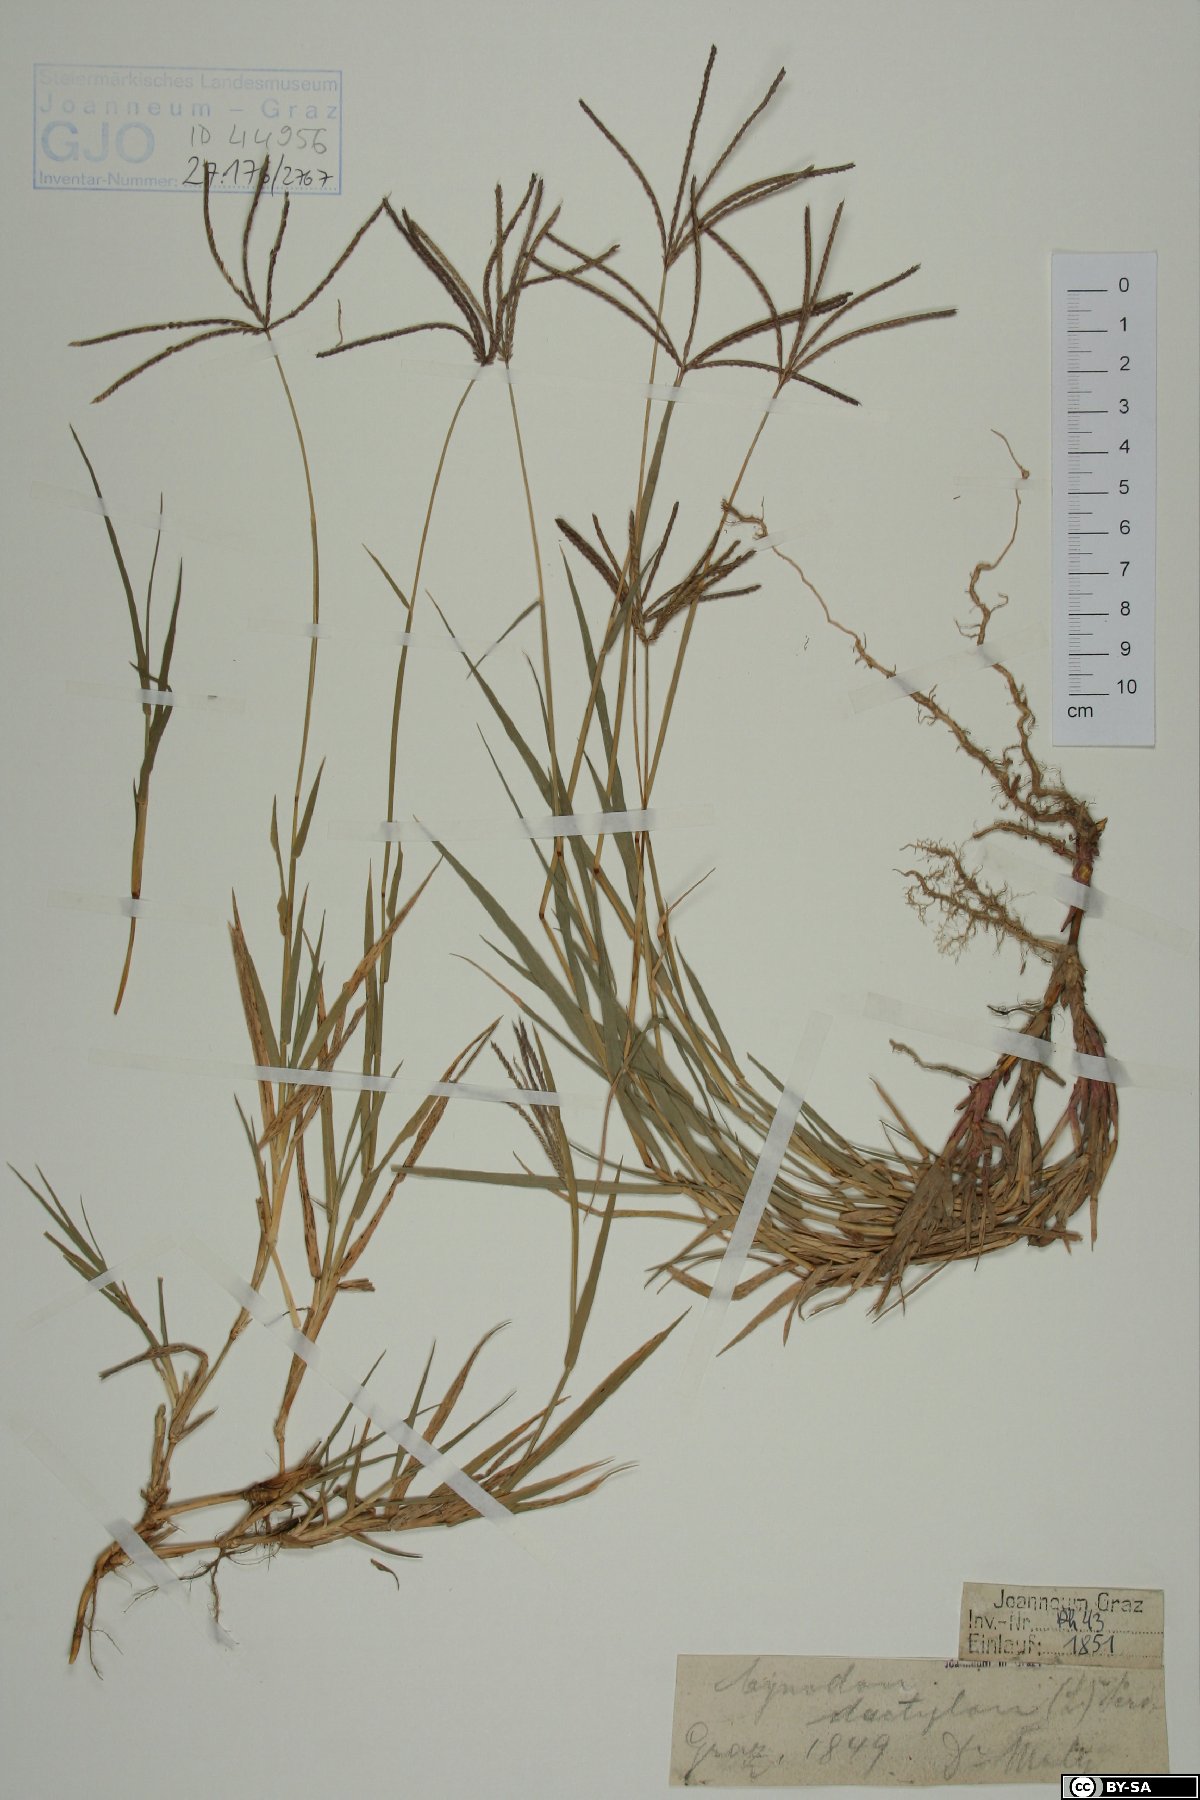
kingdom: Plantae
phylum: Tracheophyta
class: Liliopsida
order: Poales
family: Poaceae
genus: Cynodon
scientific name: Cynodon dactylon
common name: Bermuda grass
